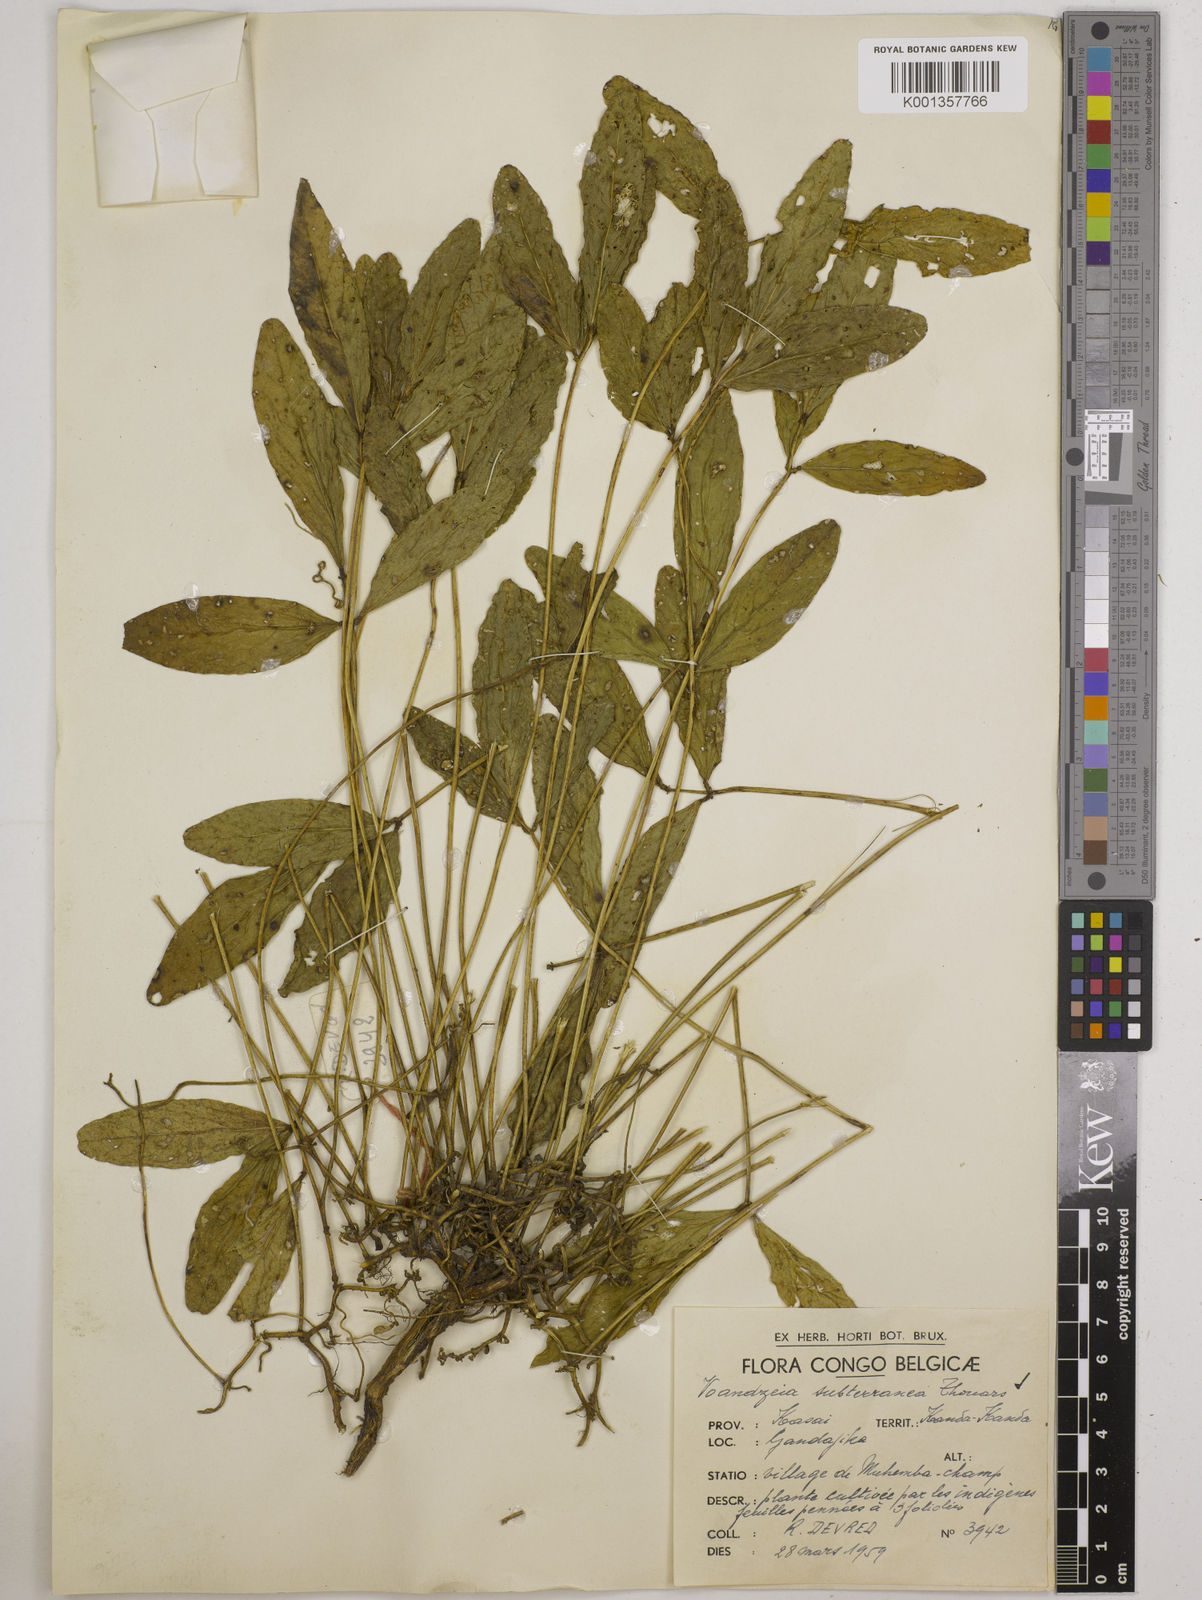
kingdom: Plantae
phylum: Tracheophyta
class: Magnoliopsida
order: Fabales
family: Fabaceae
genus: Vigna
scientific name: Vigna subterranea
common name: Bambara groundnut
